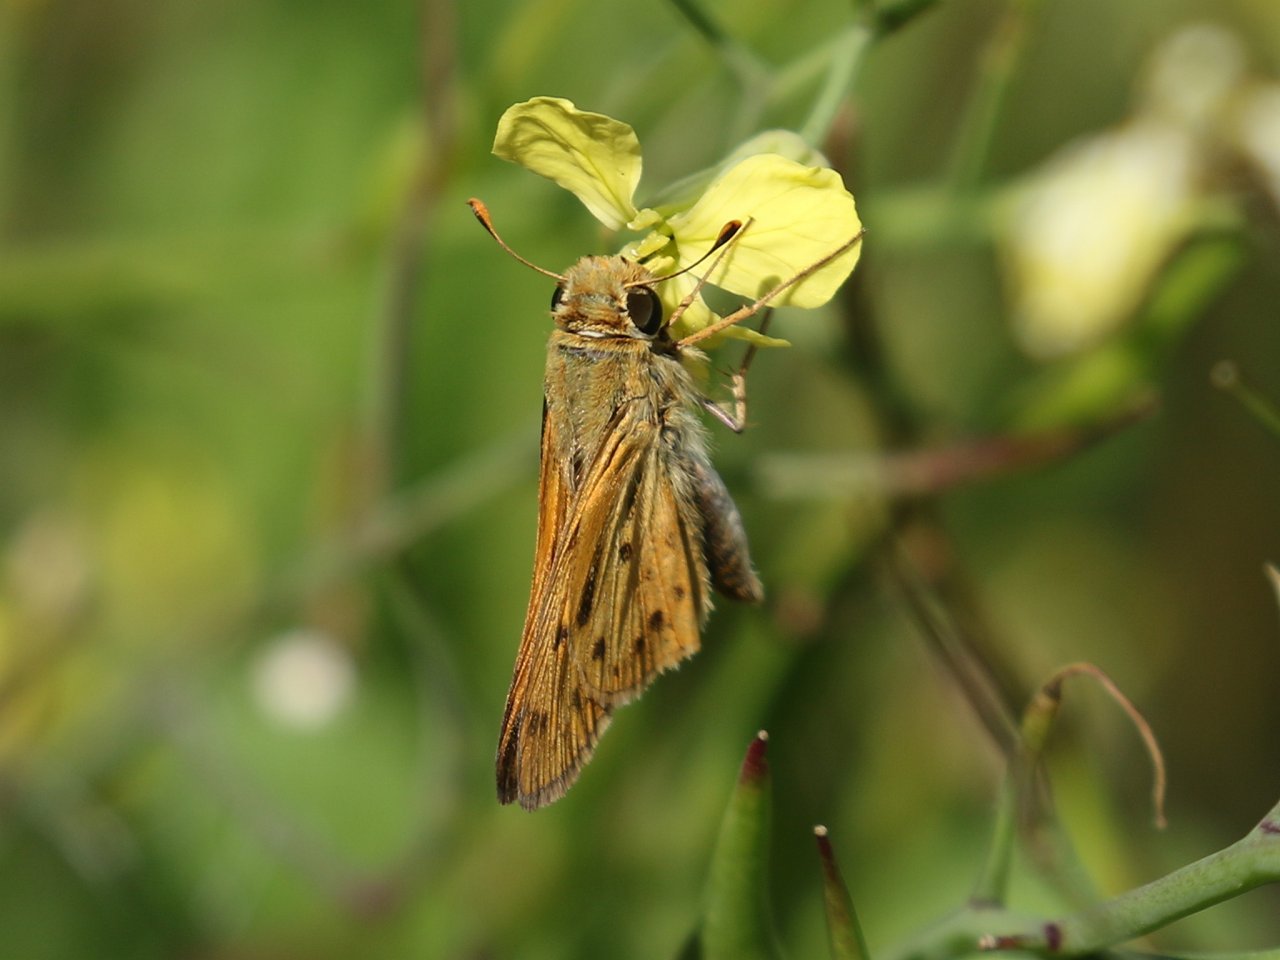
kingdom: Animalia
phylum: Arthropoda
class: Insecta
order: Lepidoptera
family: Hesperiidae
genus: Hylephila
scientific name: Hylephila phyleus
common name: Fiery Skipper
